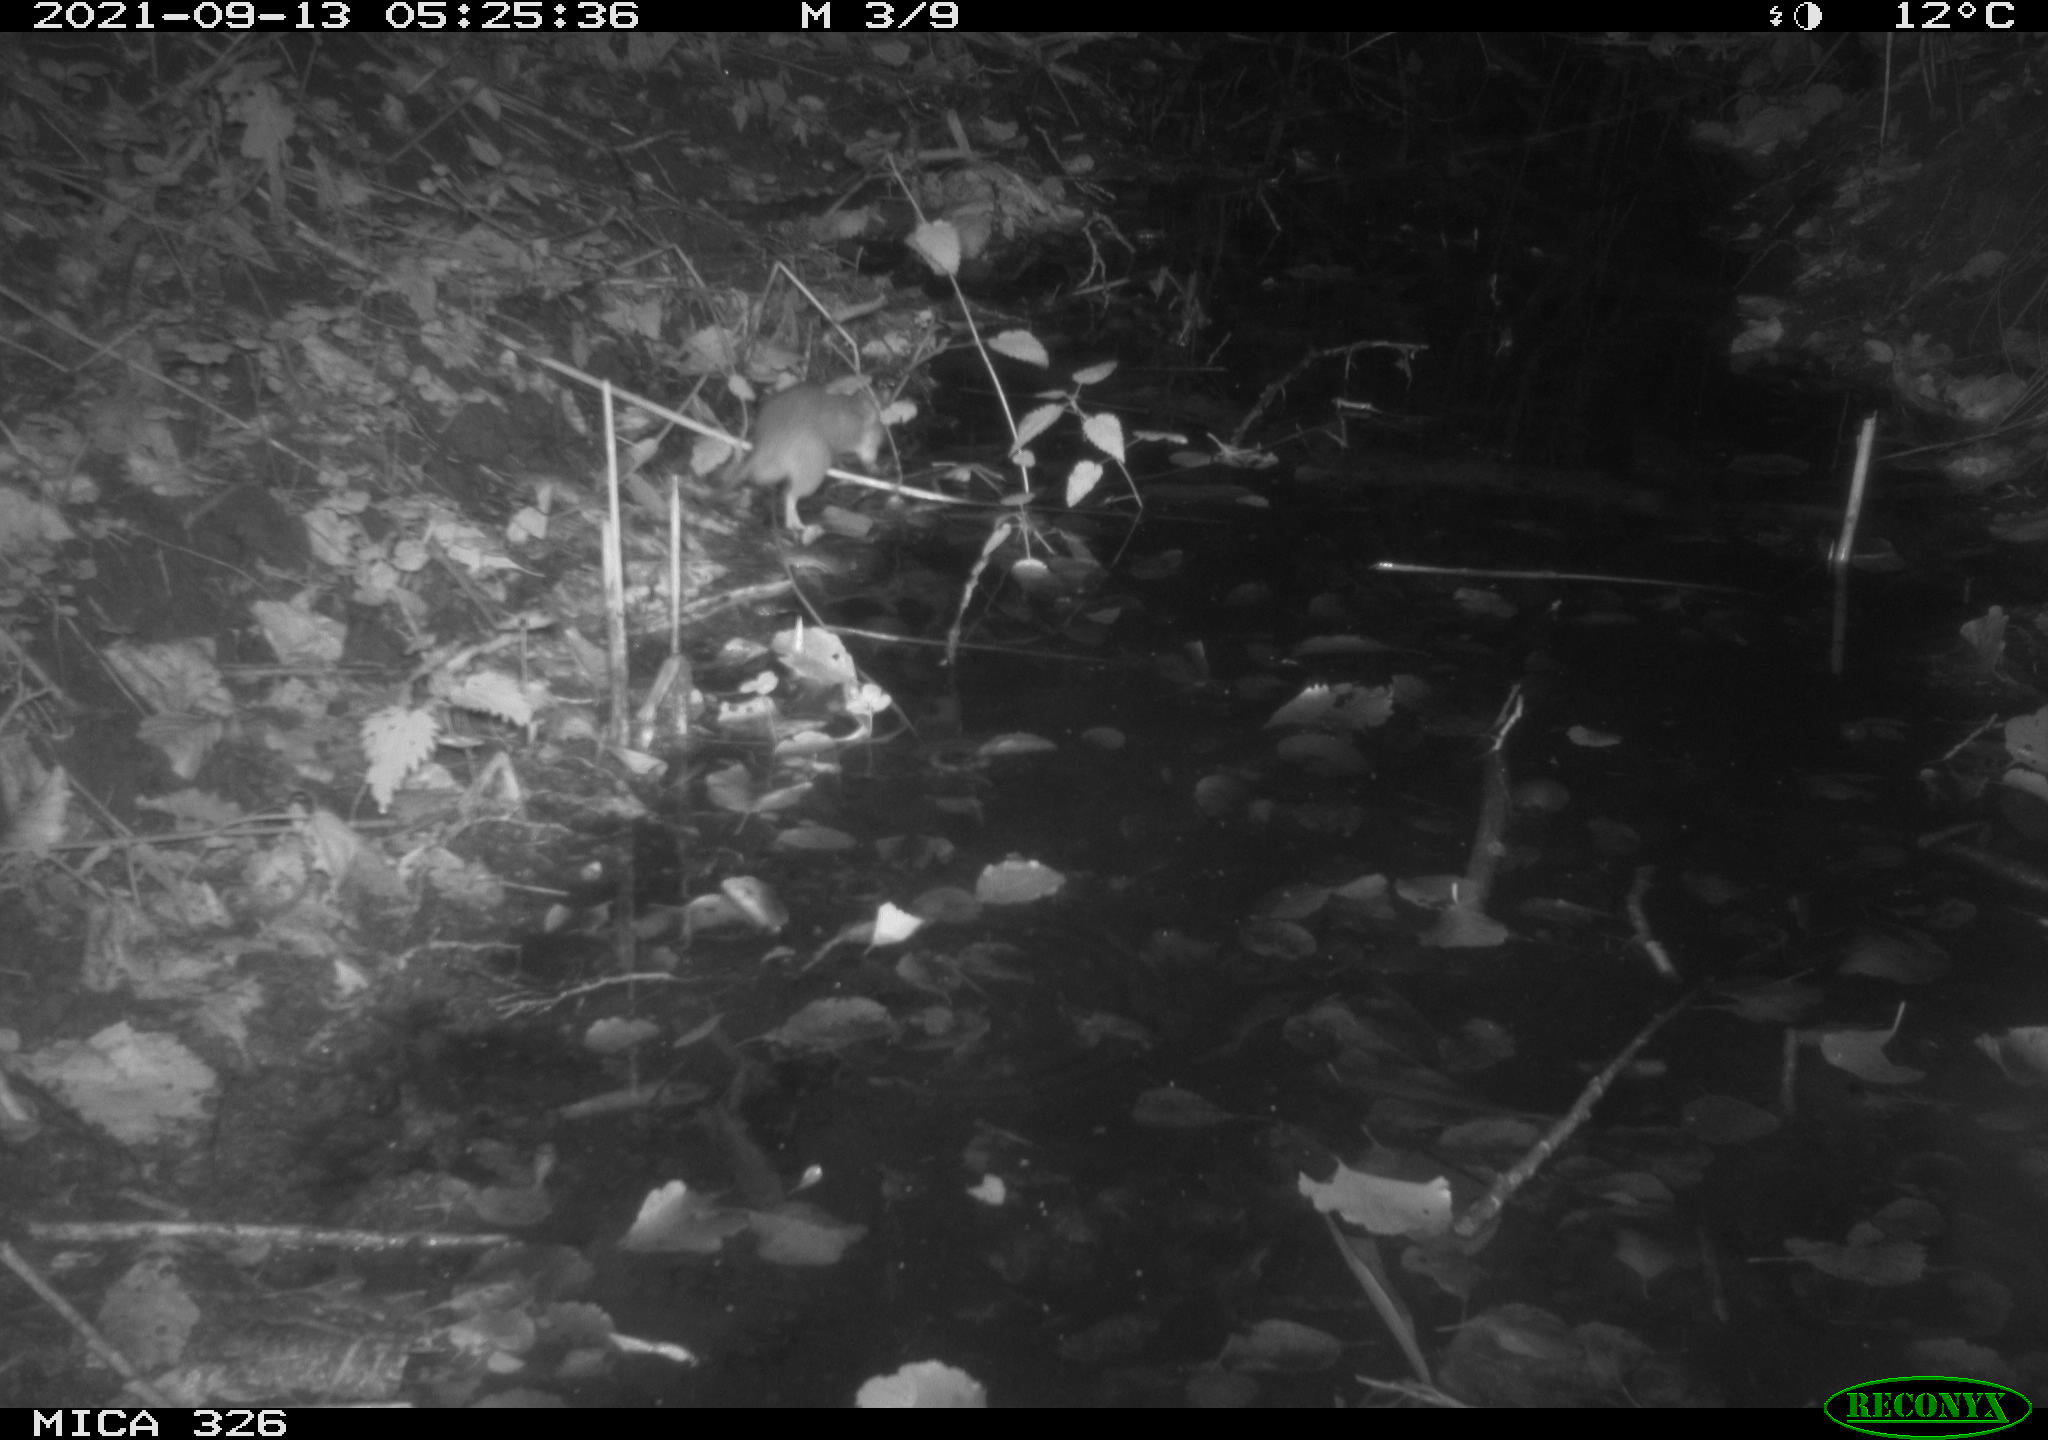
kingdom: Animalia
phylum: Chordata
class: Mammalia
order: Rodentia
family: Muridae
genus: Rattus
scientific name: Rattus norvegicus
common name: Brown rat
